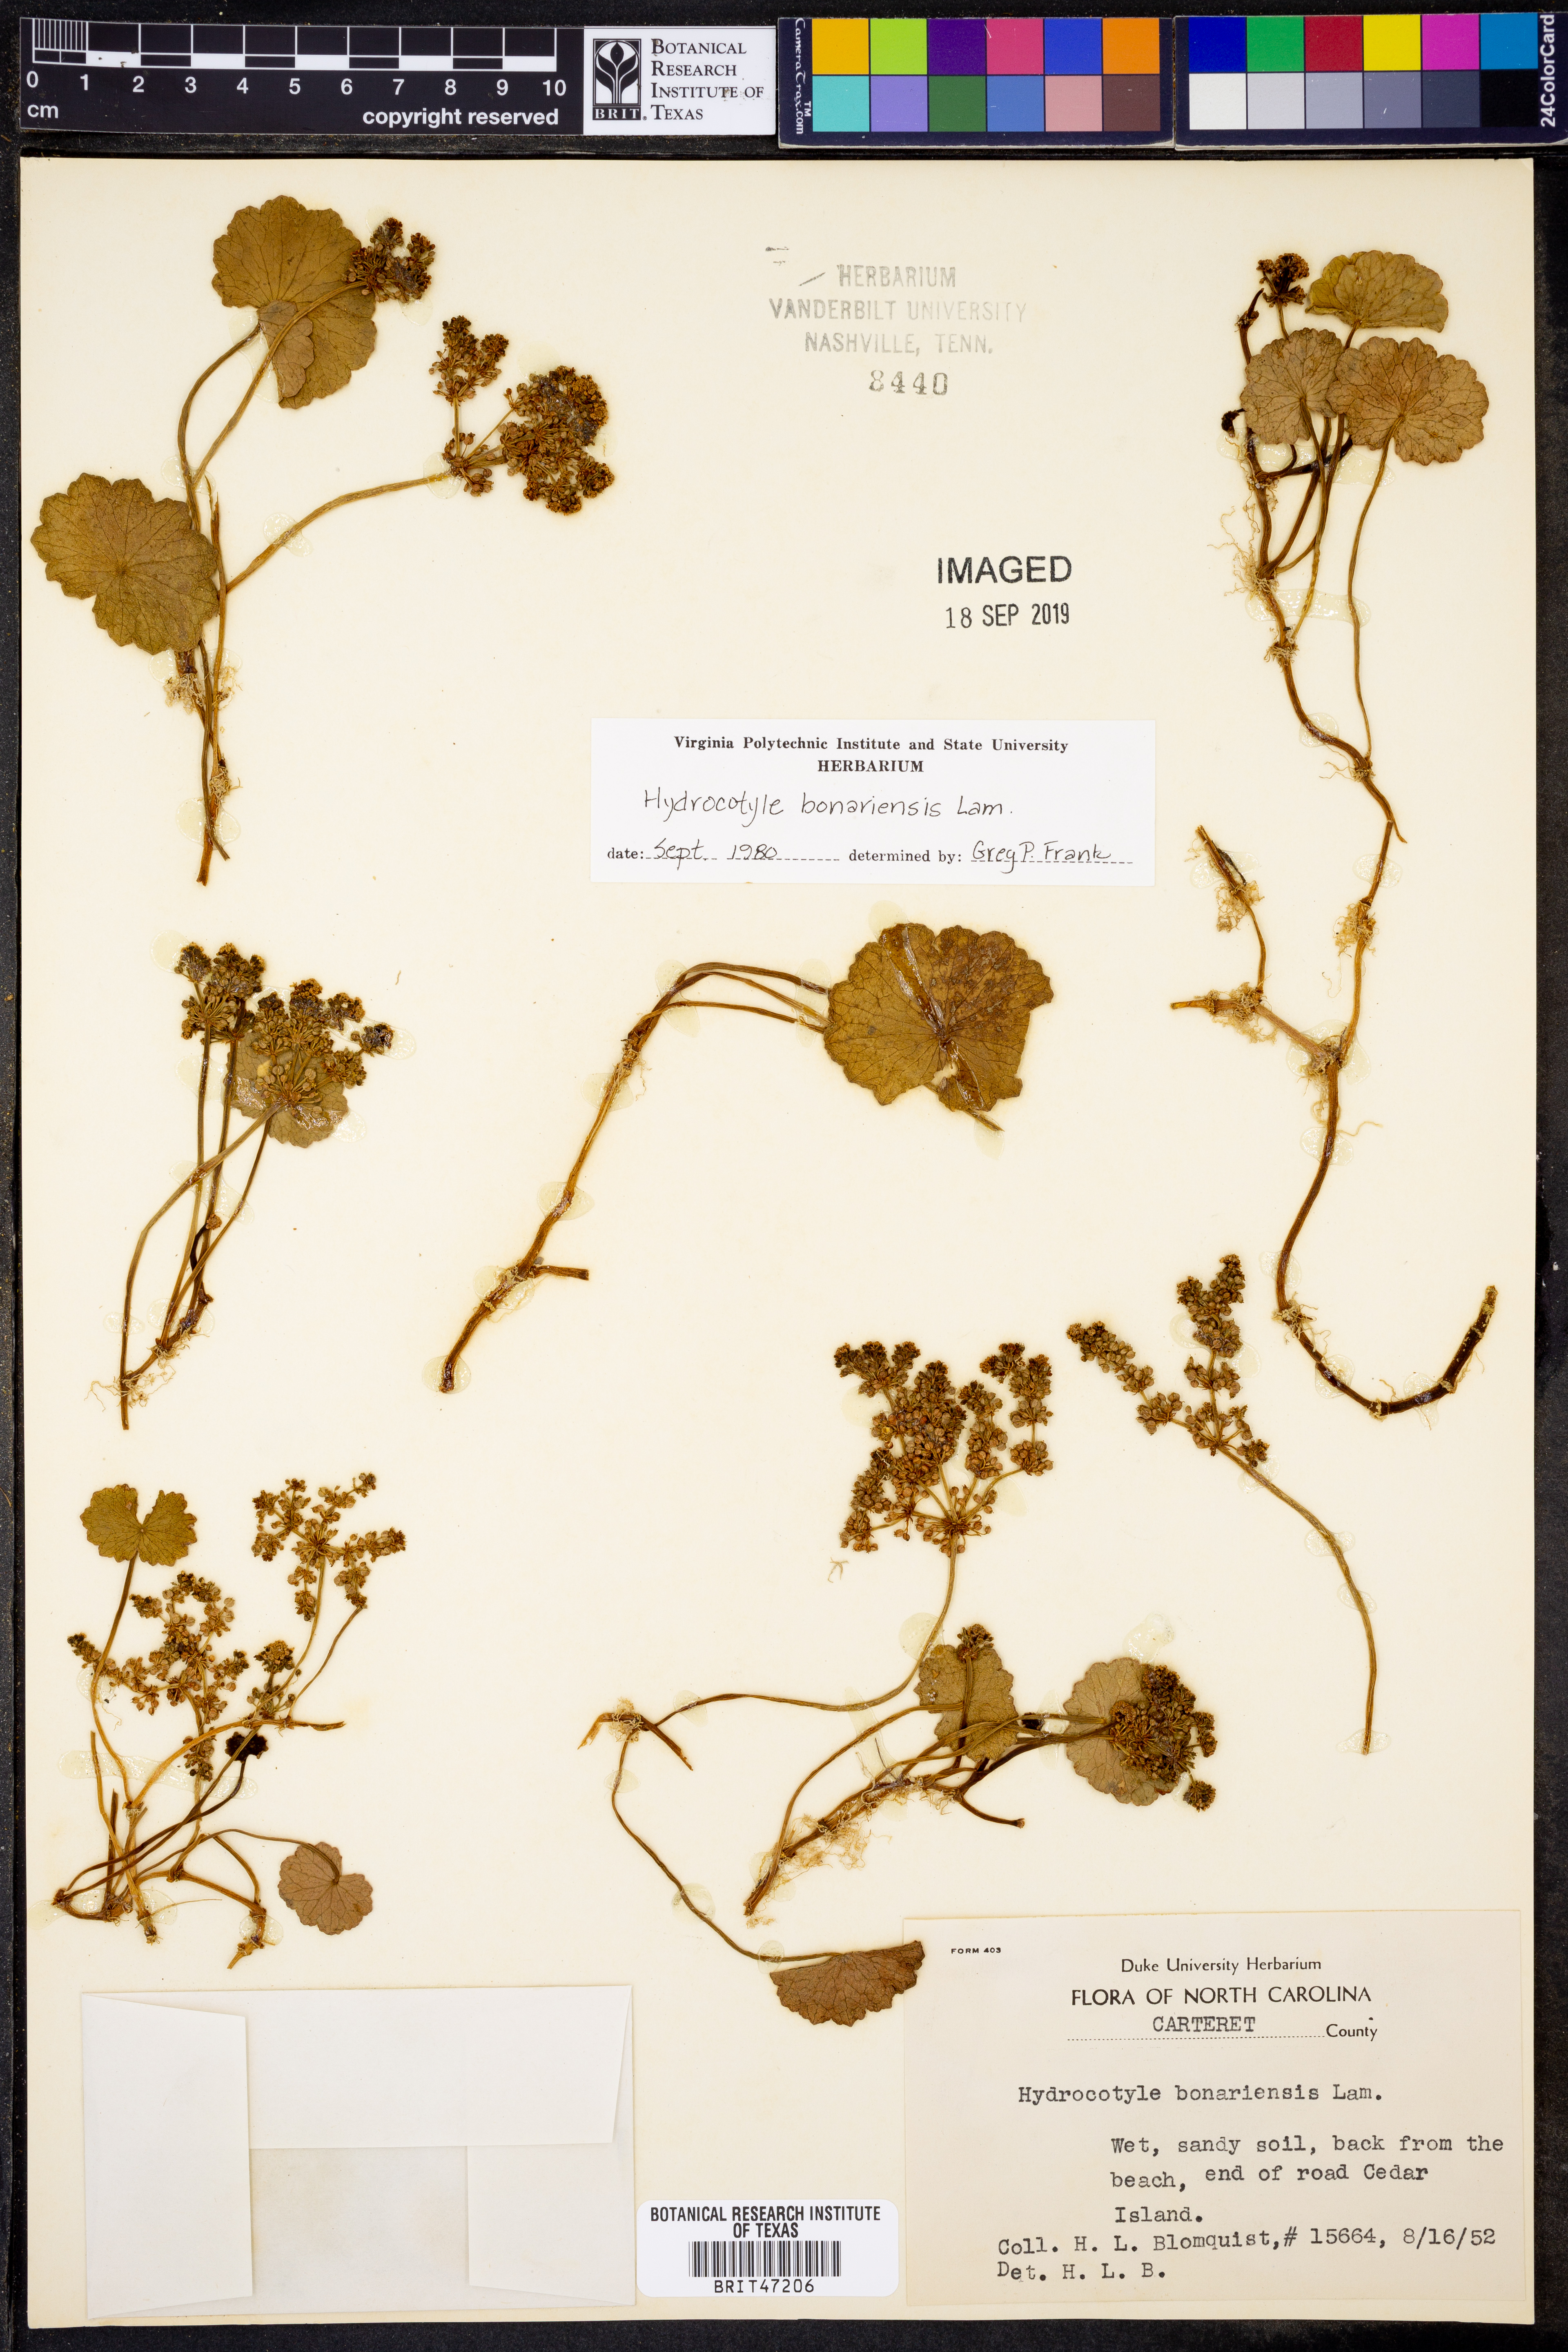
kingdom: Plantae
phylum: Tracheophyta
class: Magnoliopsida
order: Apiales
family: Araliaceae
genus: Hydrocotyle
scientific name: Hydrocotyle bonariensis
